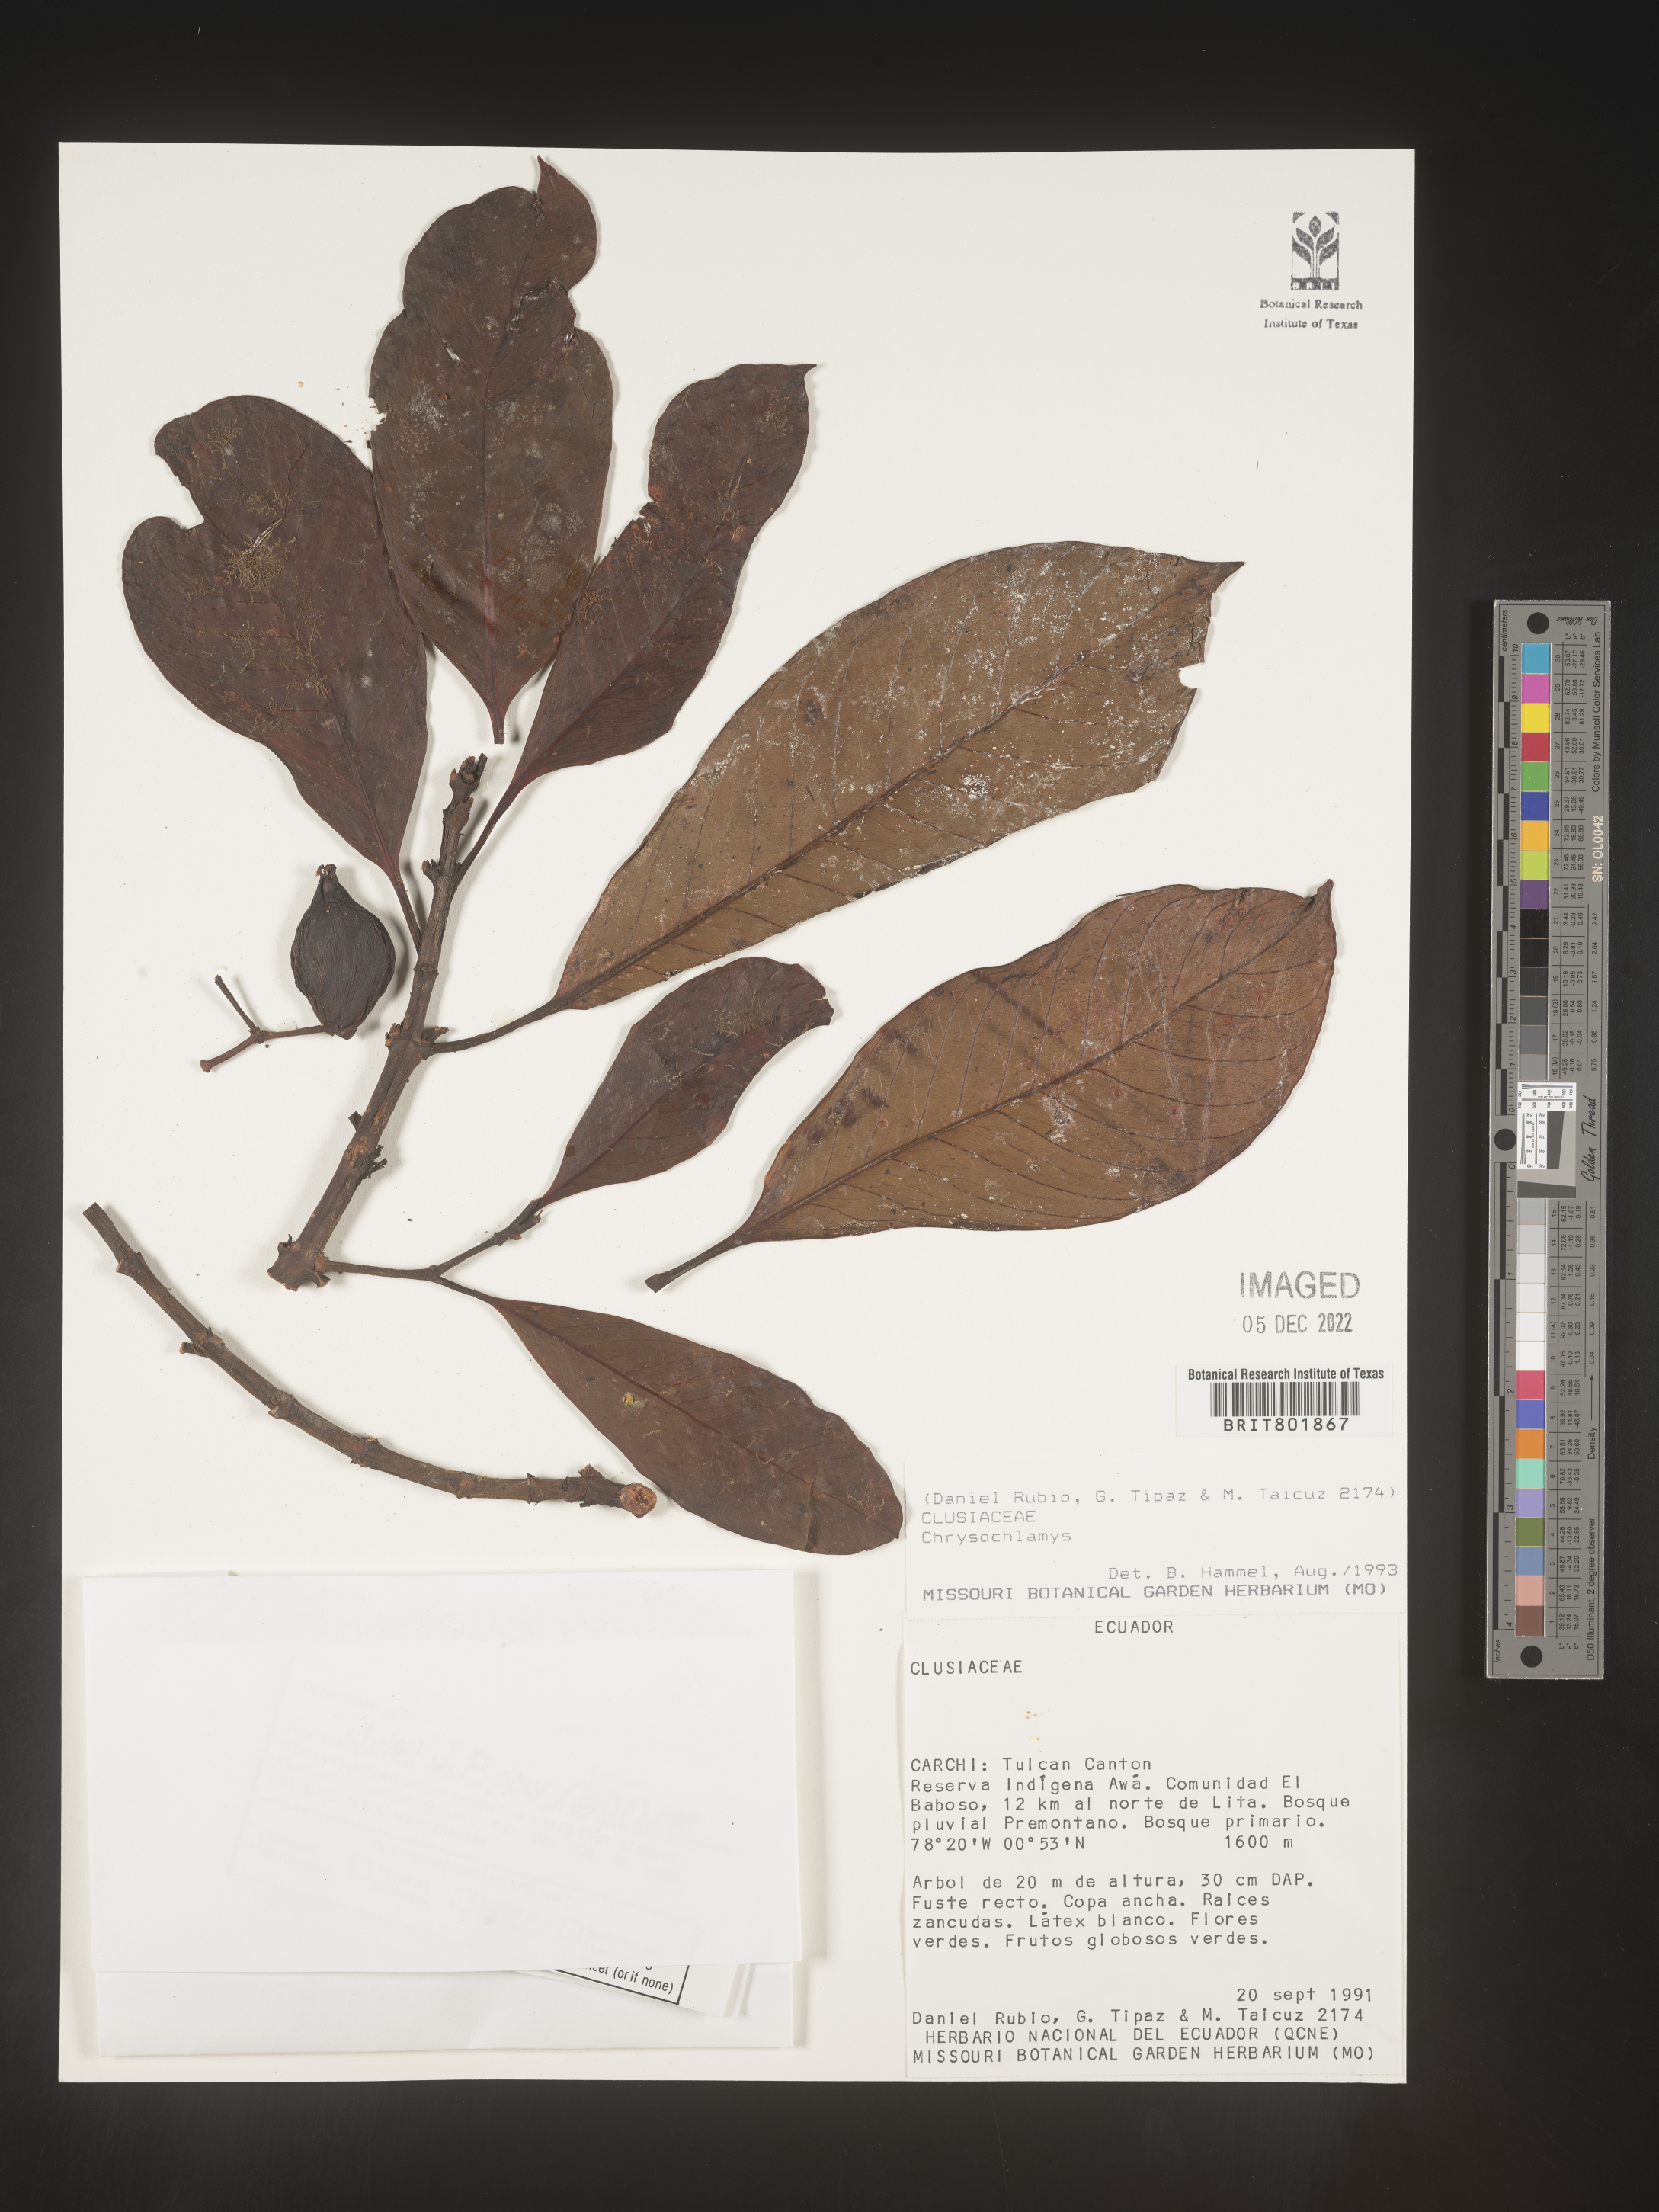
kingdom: Plantae
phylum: Tracheophyta
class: Magnoliopsida
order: Malpighiales
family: Clusiaceae
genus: Chrysochlamys
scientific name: Chrysochlamys
